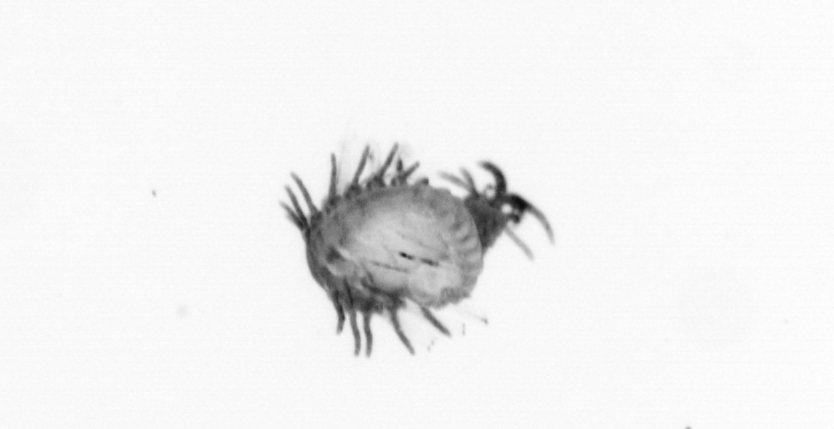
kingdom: Animalia
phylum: Annelida
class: Polychaeta
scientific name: Polychaeta
